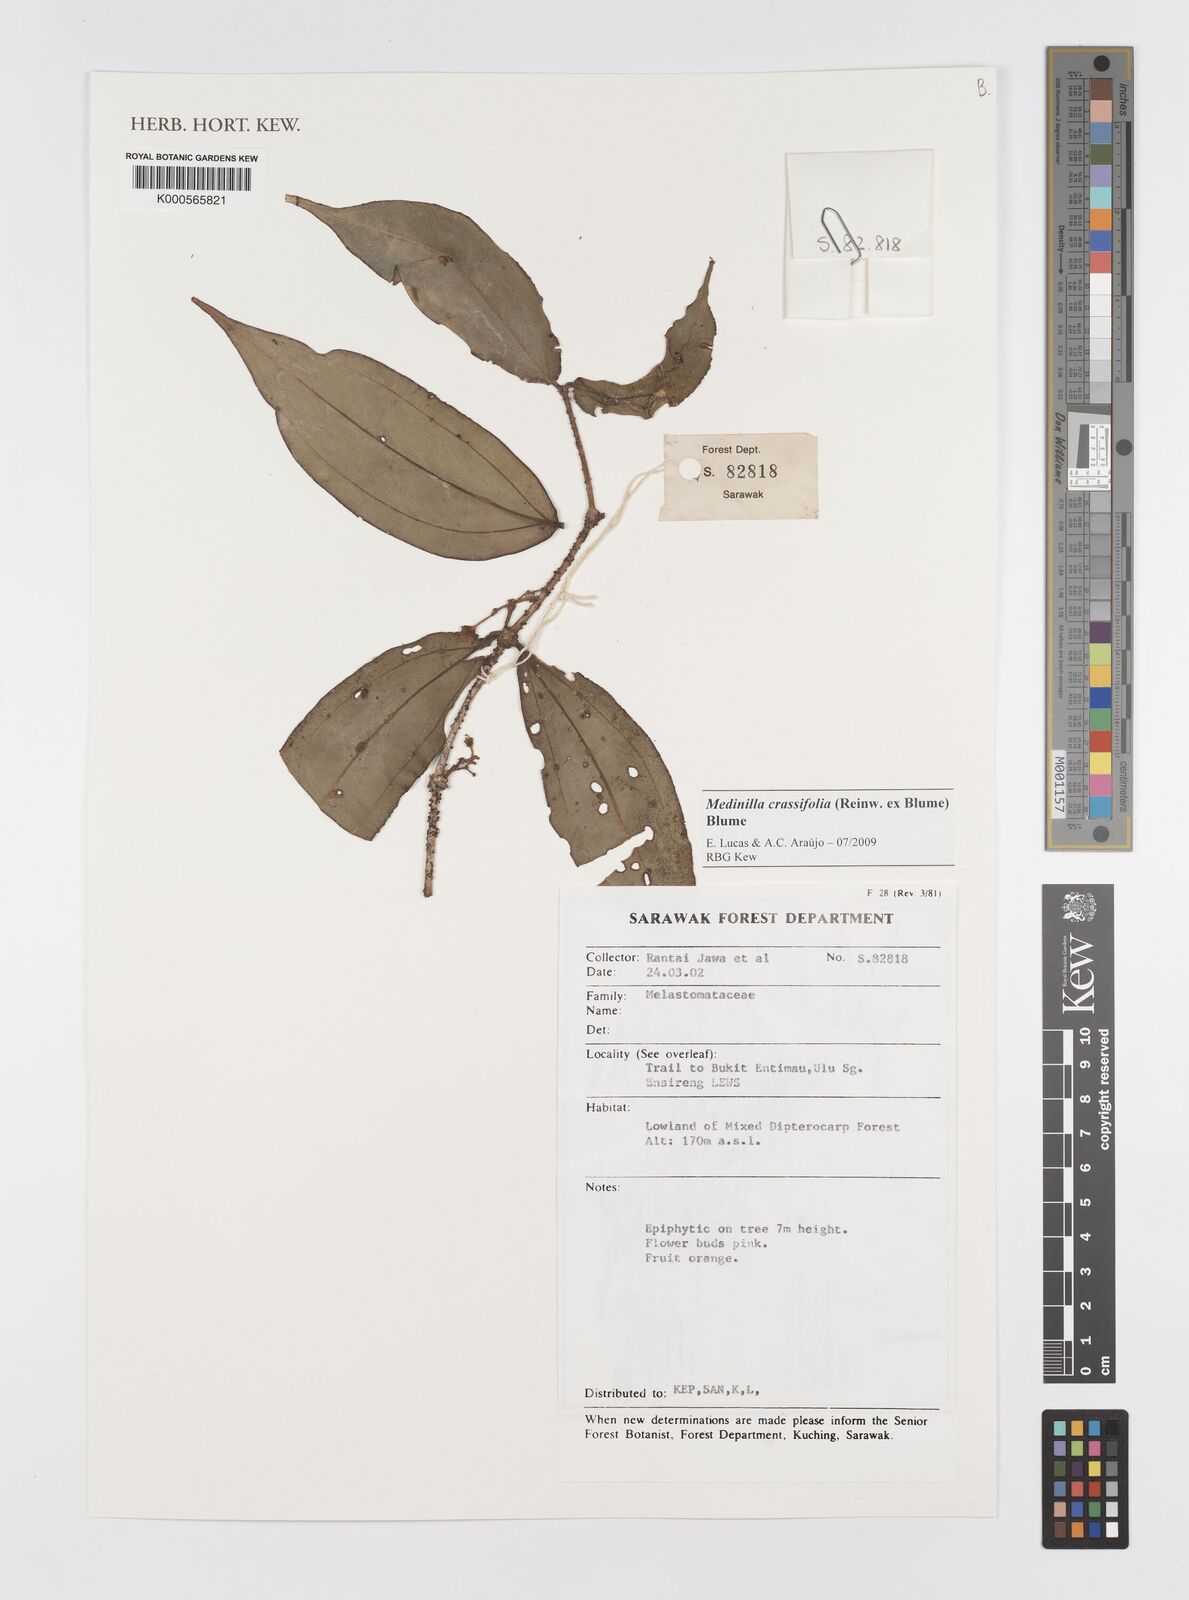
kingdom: Plantae
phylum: Tracheophyta
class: Magnoliopsida
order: Myrtales
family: Melastomataceae
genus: Medinilla
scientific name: Medinilla crassifolia
